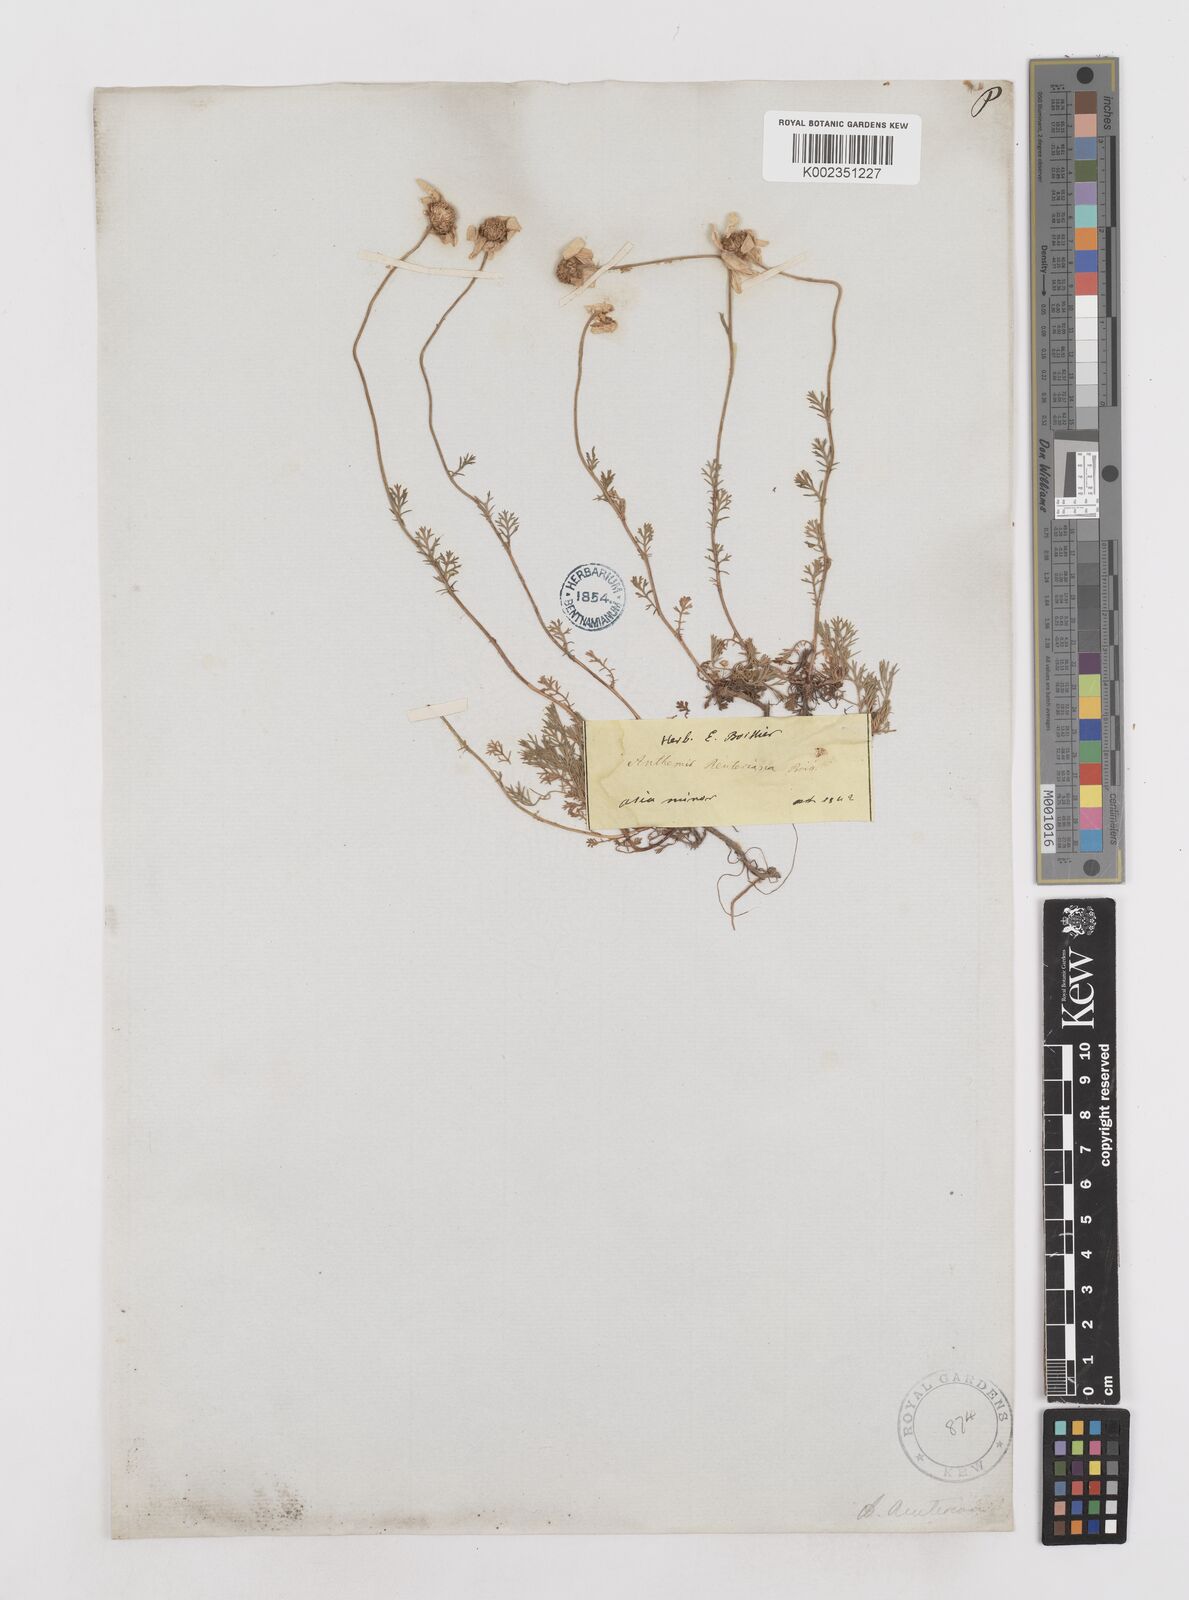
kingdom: Plantae
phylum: Tracheophyta
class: Magnoliopsida
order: Asterales
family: Asteraceae
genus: Anthemis
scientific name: Anthemis cretica
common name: Mountain dog-daisy
